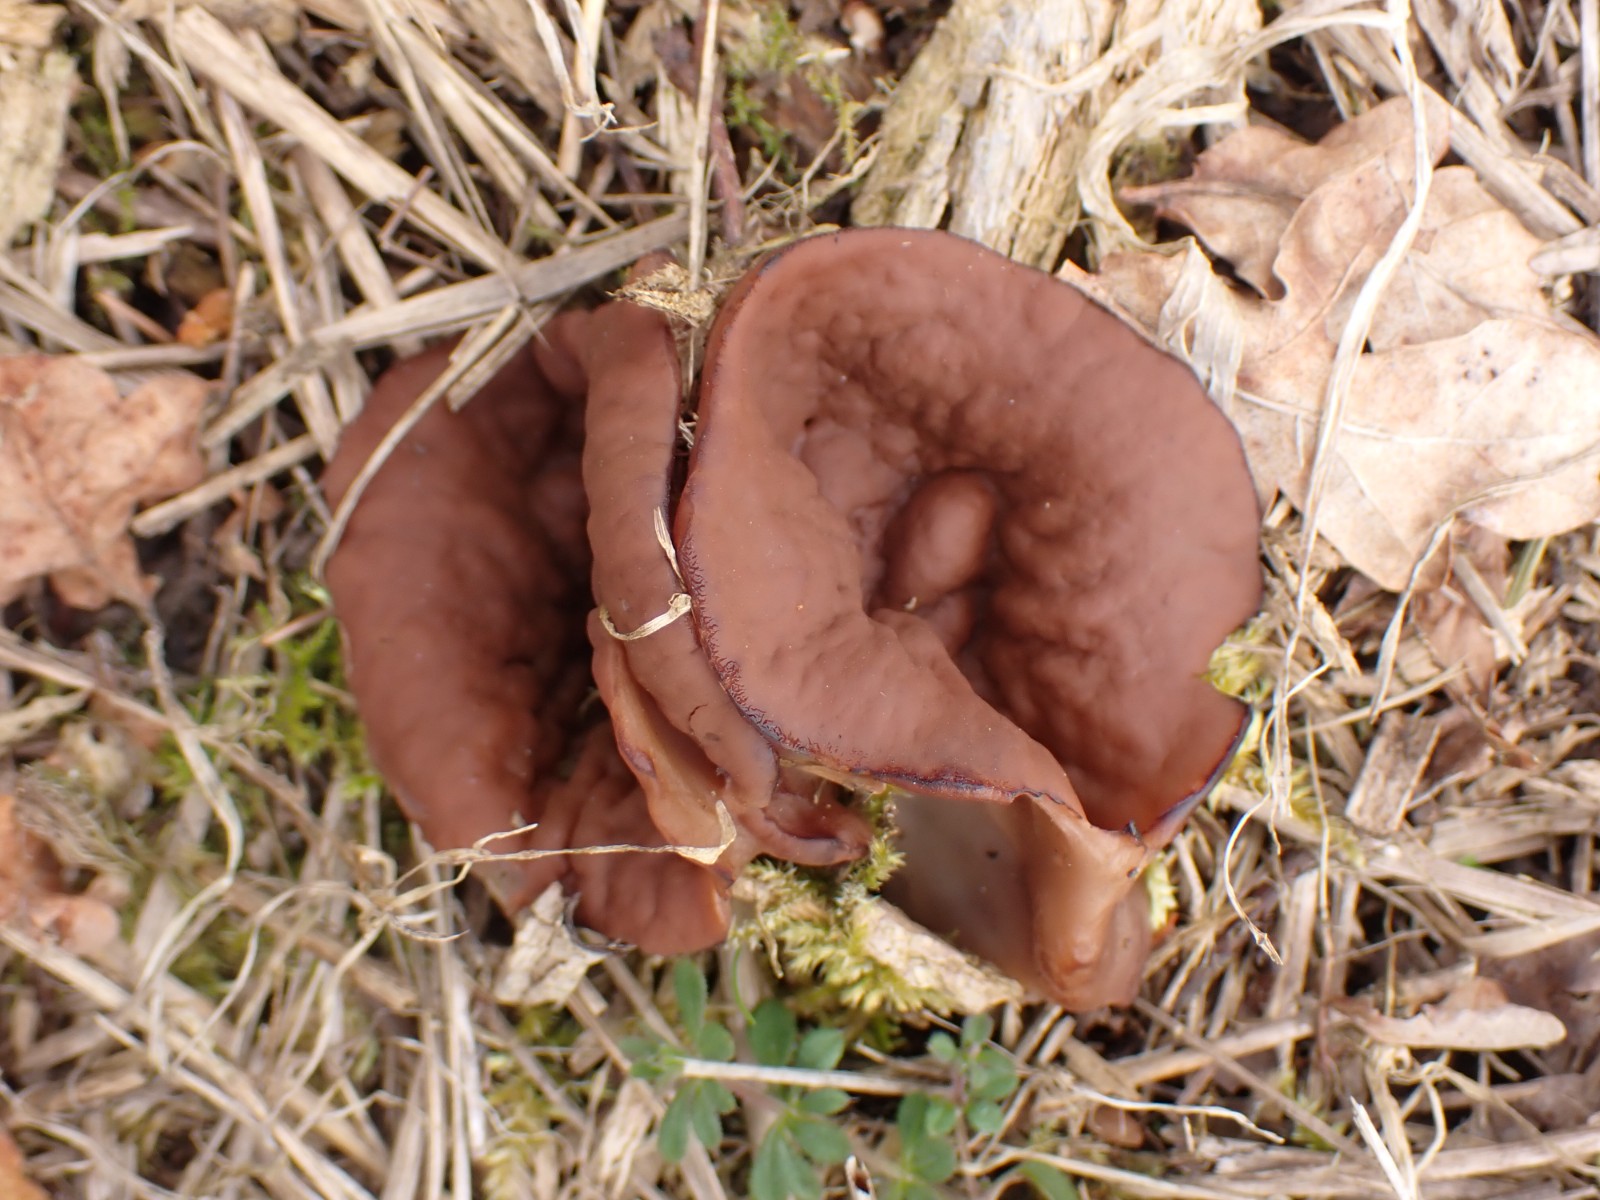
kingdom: Fungi
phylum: Ascomycota
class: Pezizomycetes
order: Pezizales
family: Discinaceae
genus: Discina
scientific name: Discina ancilis
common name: udbredt stenmorkel
